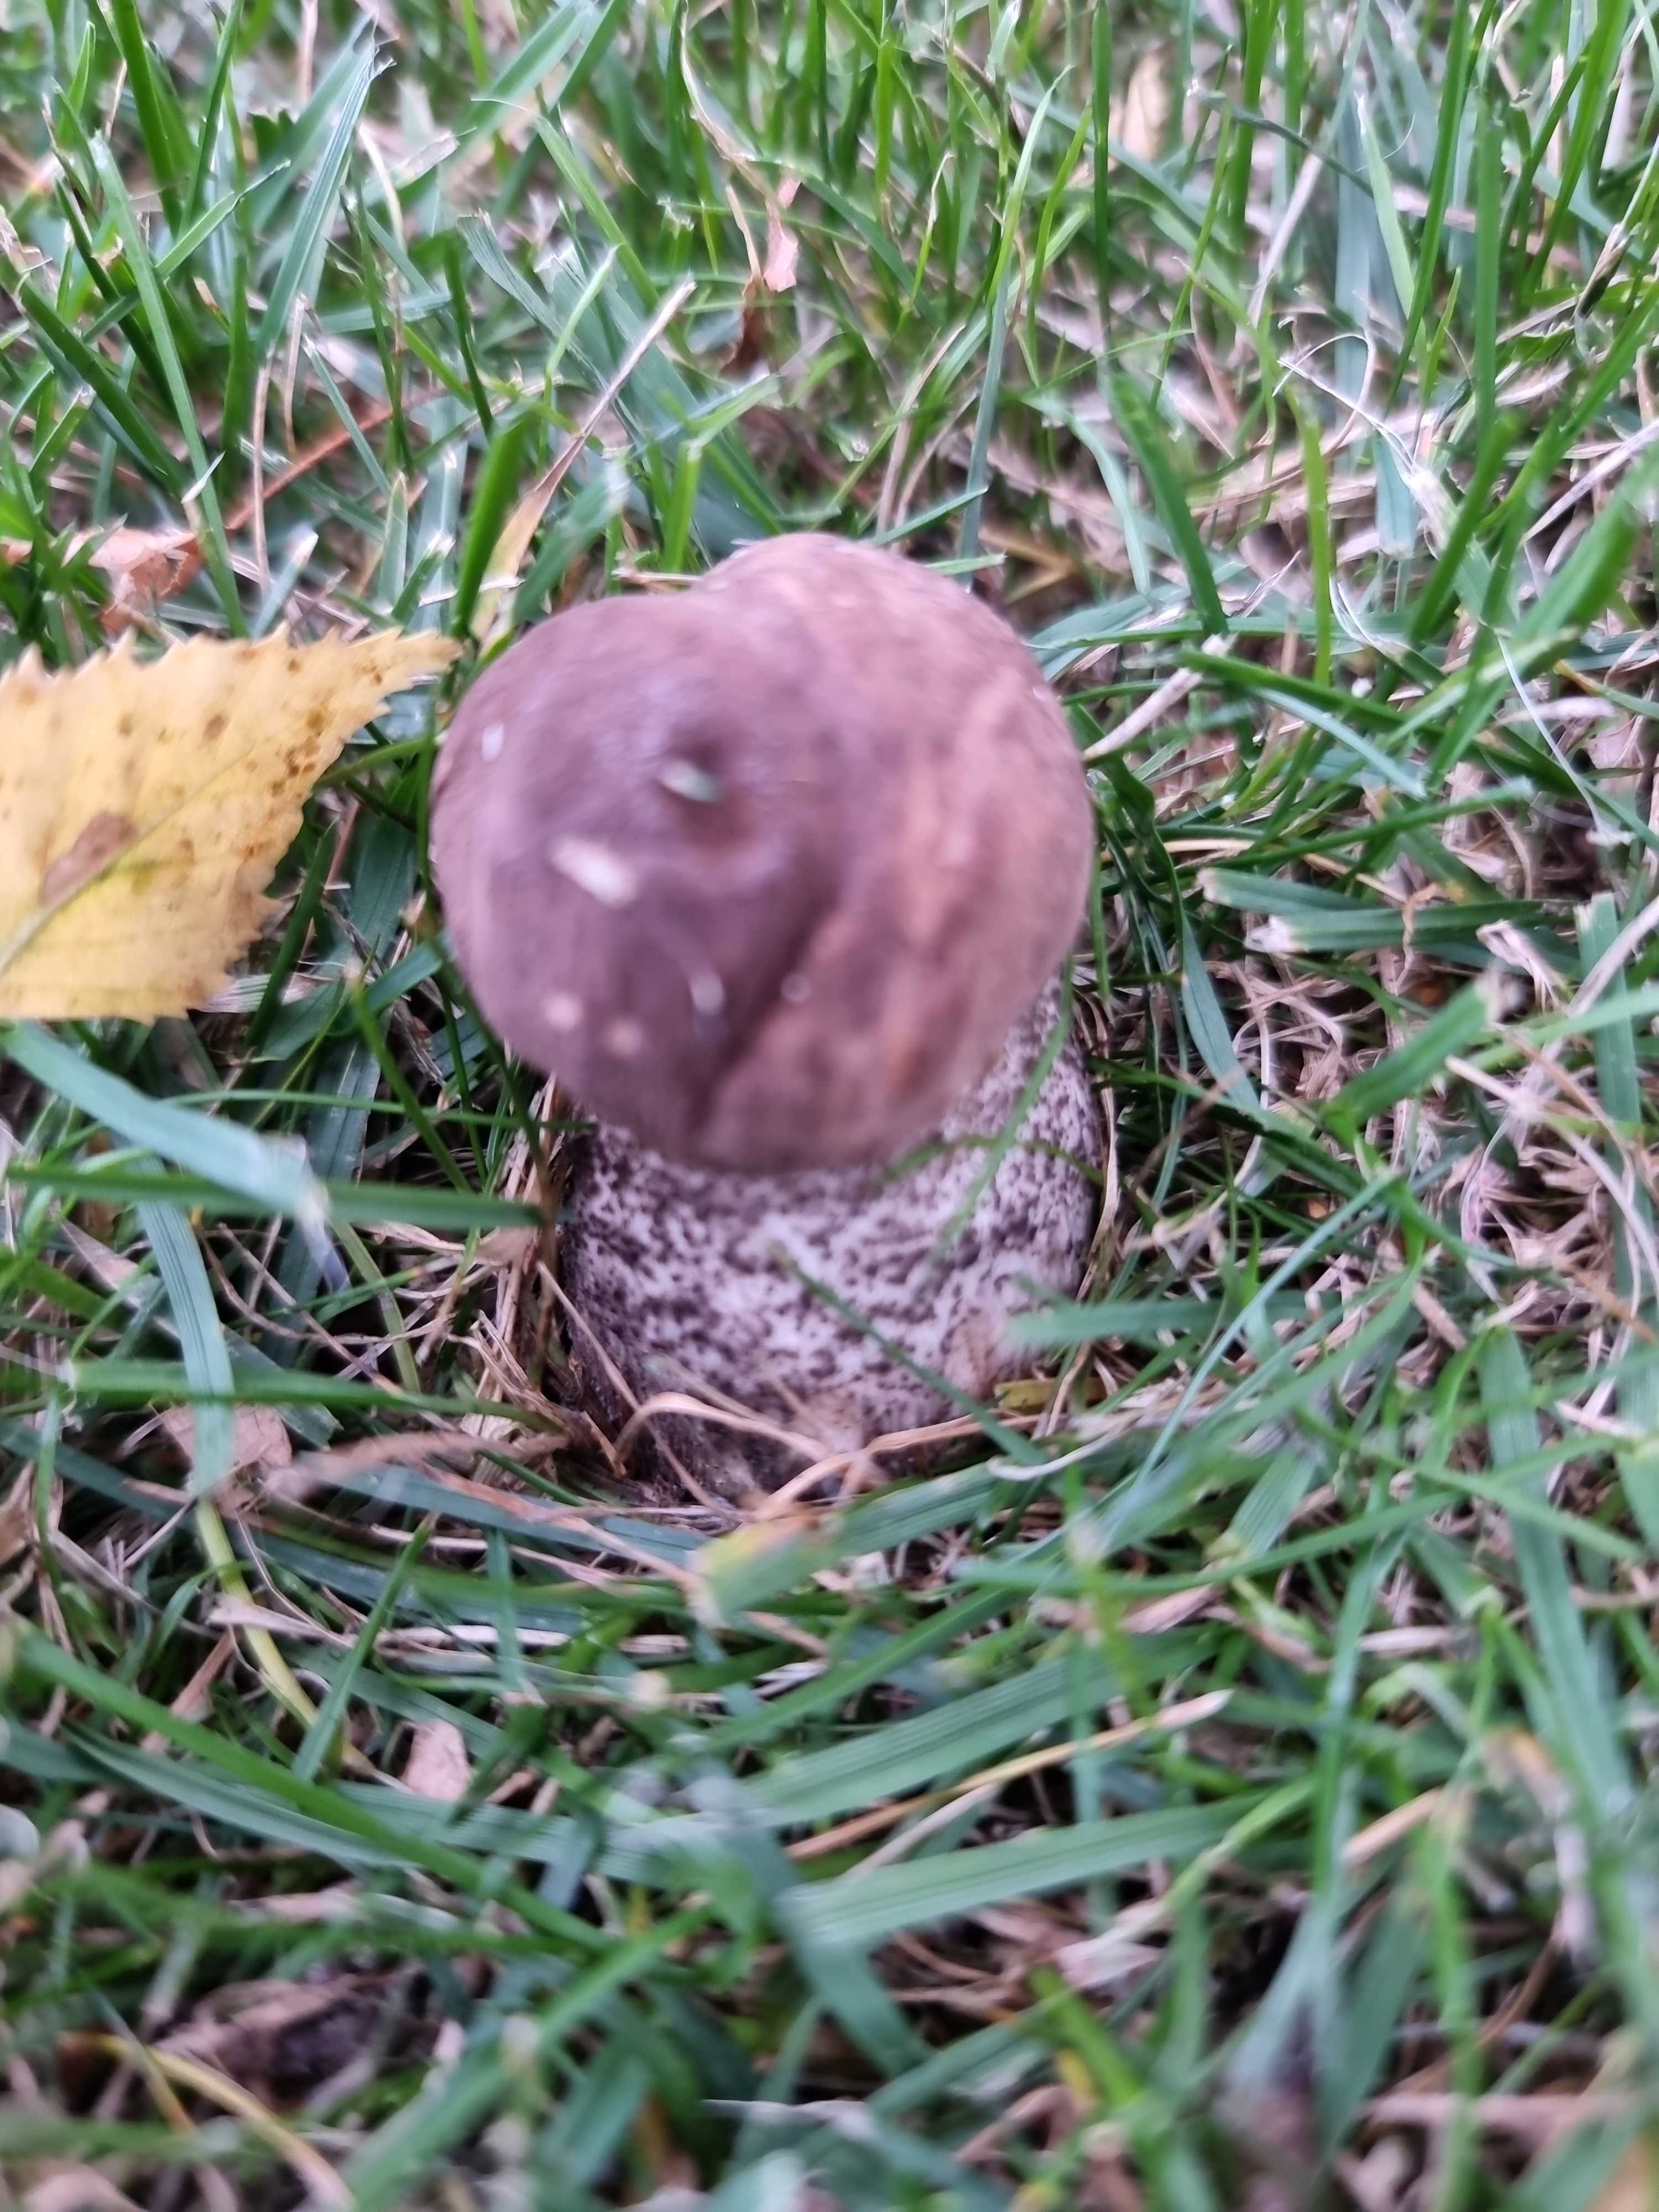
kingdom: Fungi
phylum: Basidiomycota
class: Agaricomycetes
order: Boletales
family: Boletaceae
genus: Leccinum
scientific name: Leccinum scabrum
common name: brun skælrørhat
